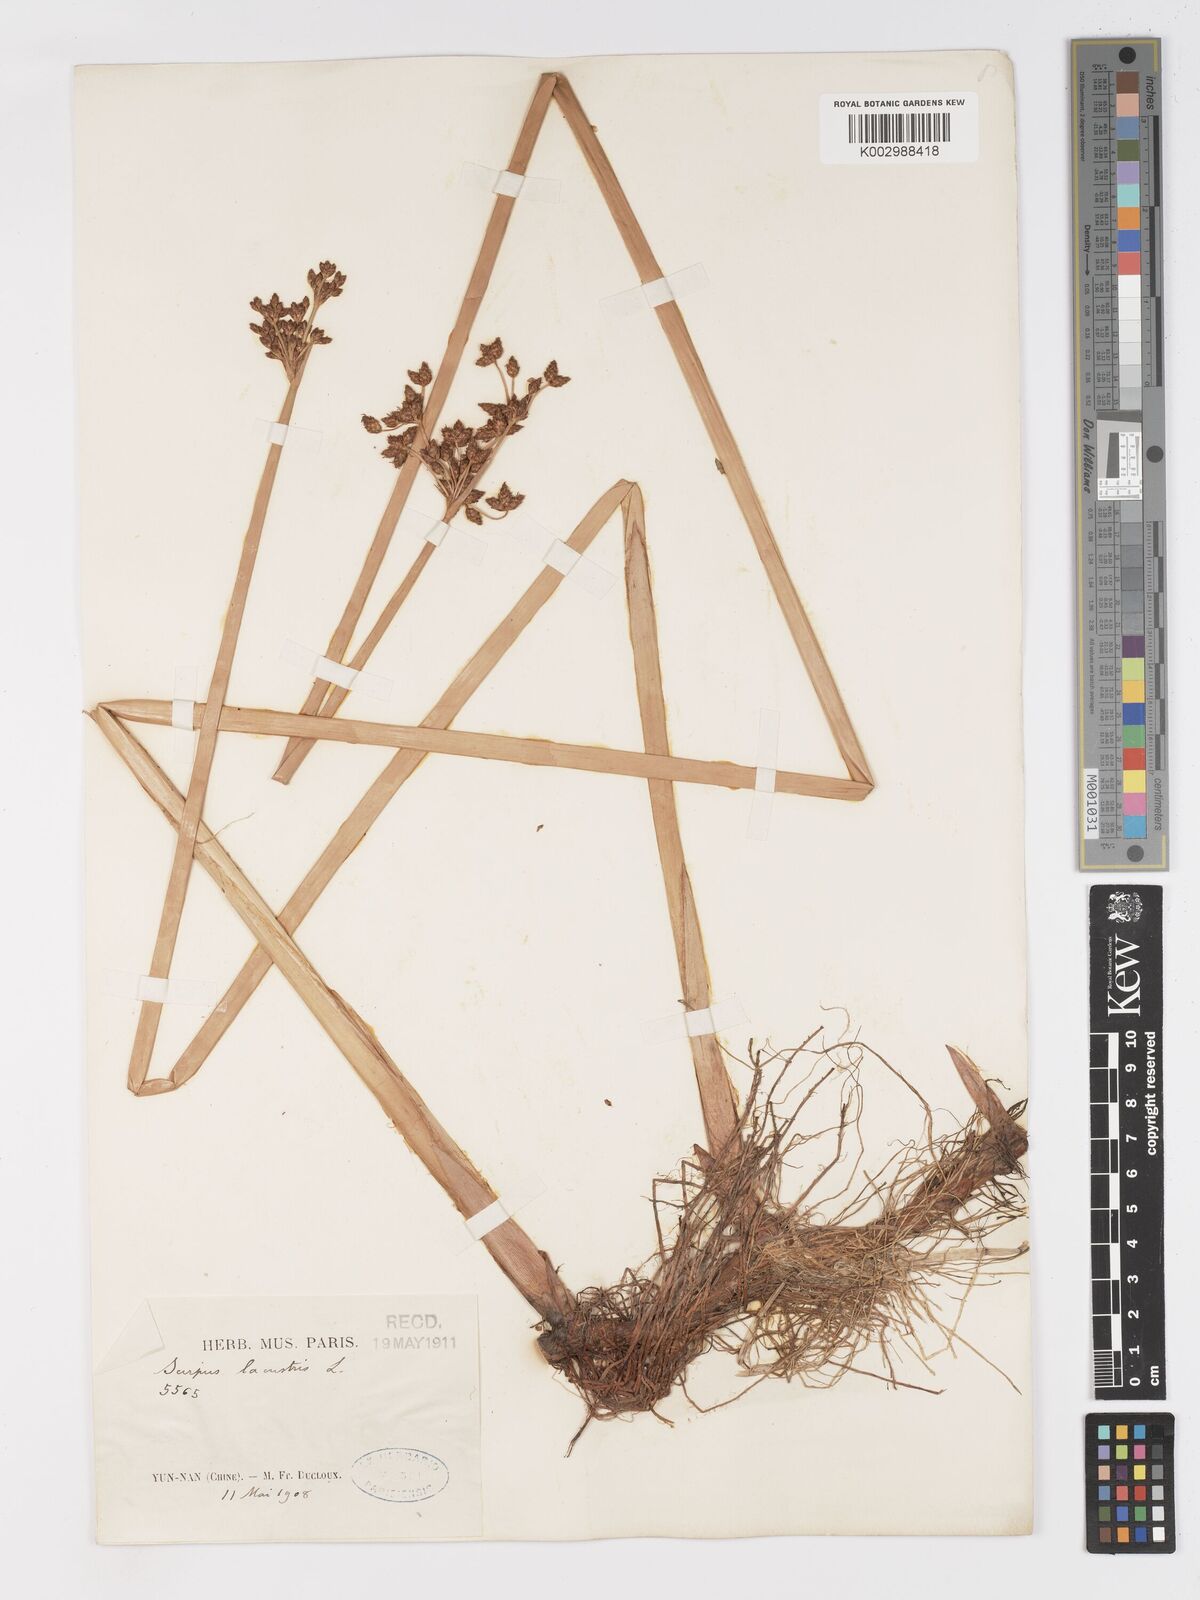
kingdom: Plantae
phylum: Tracheophyta
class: Liliopsida
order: Poales
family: Cyperaceae
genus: Schoenoplectus
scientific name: Schoenoplectus lacustris
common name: Common club-rush
